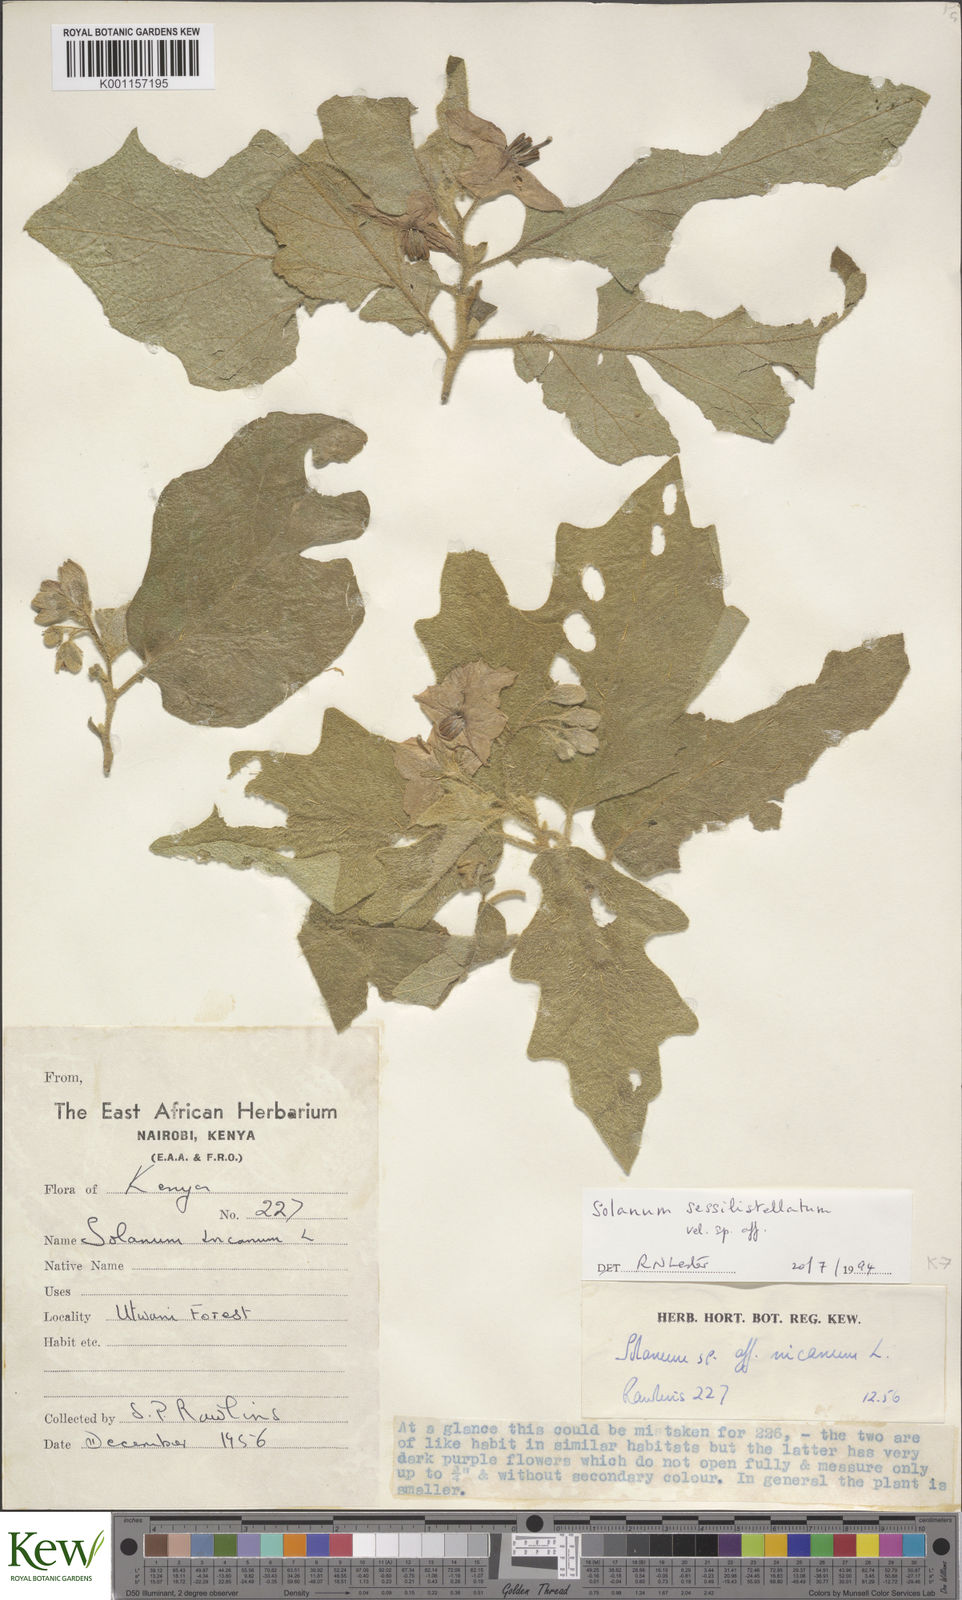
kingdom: Plantae
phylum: Tracheophyta
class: Magnoliopsida
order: Solanales
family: Solanaceae
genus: Solanum
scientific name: Solanum campylacanthum
